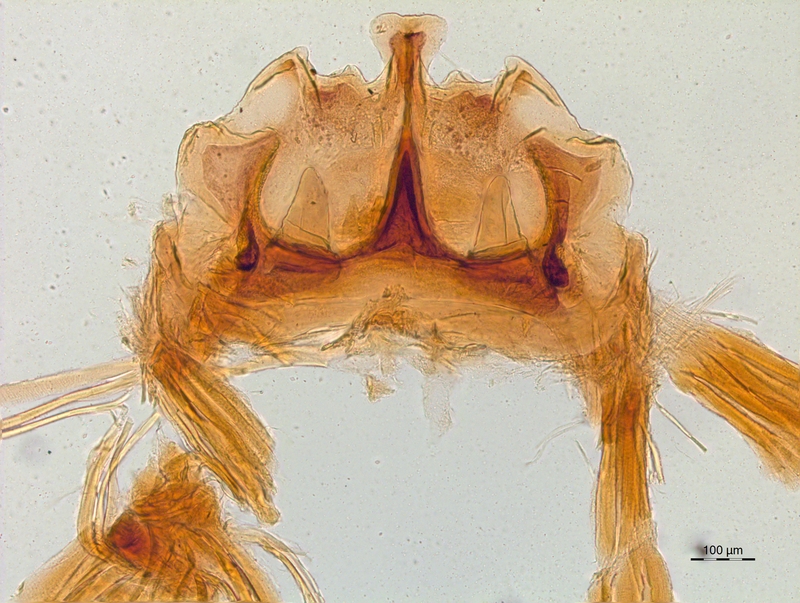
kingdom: Animalia
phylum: Arthropoda
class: Diplopoda
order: Chordeumatida
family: Craspedosomatidae
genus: Craspedosoma
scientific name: Craspedosoma rawlinsii
